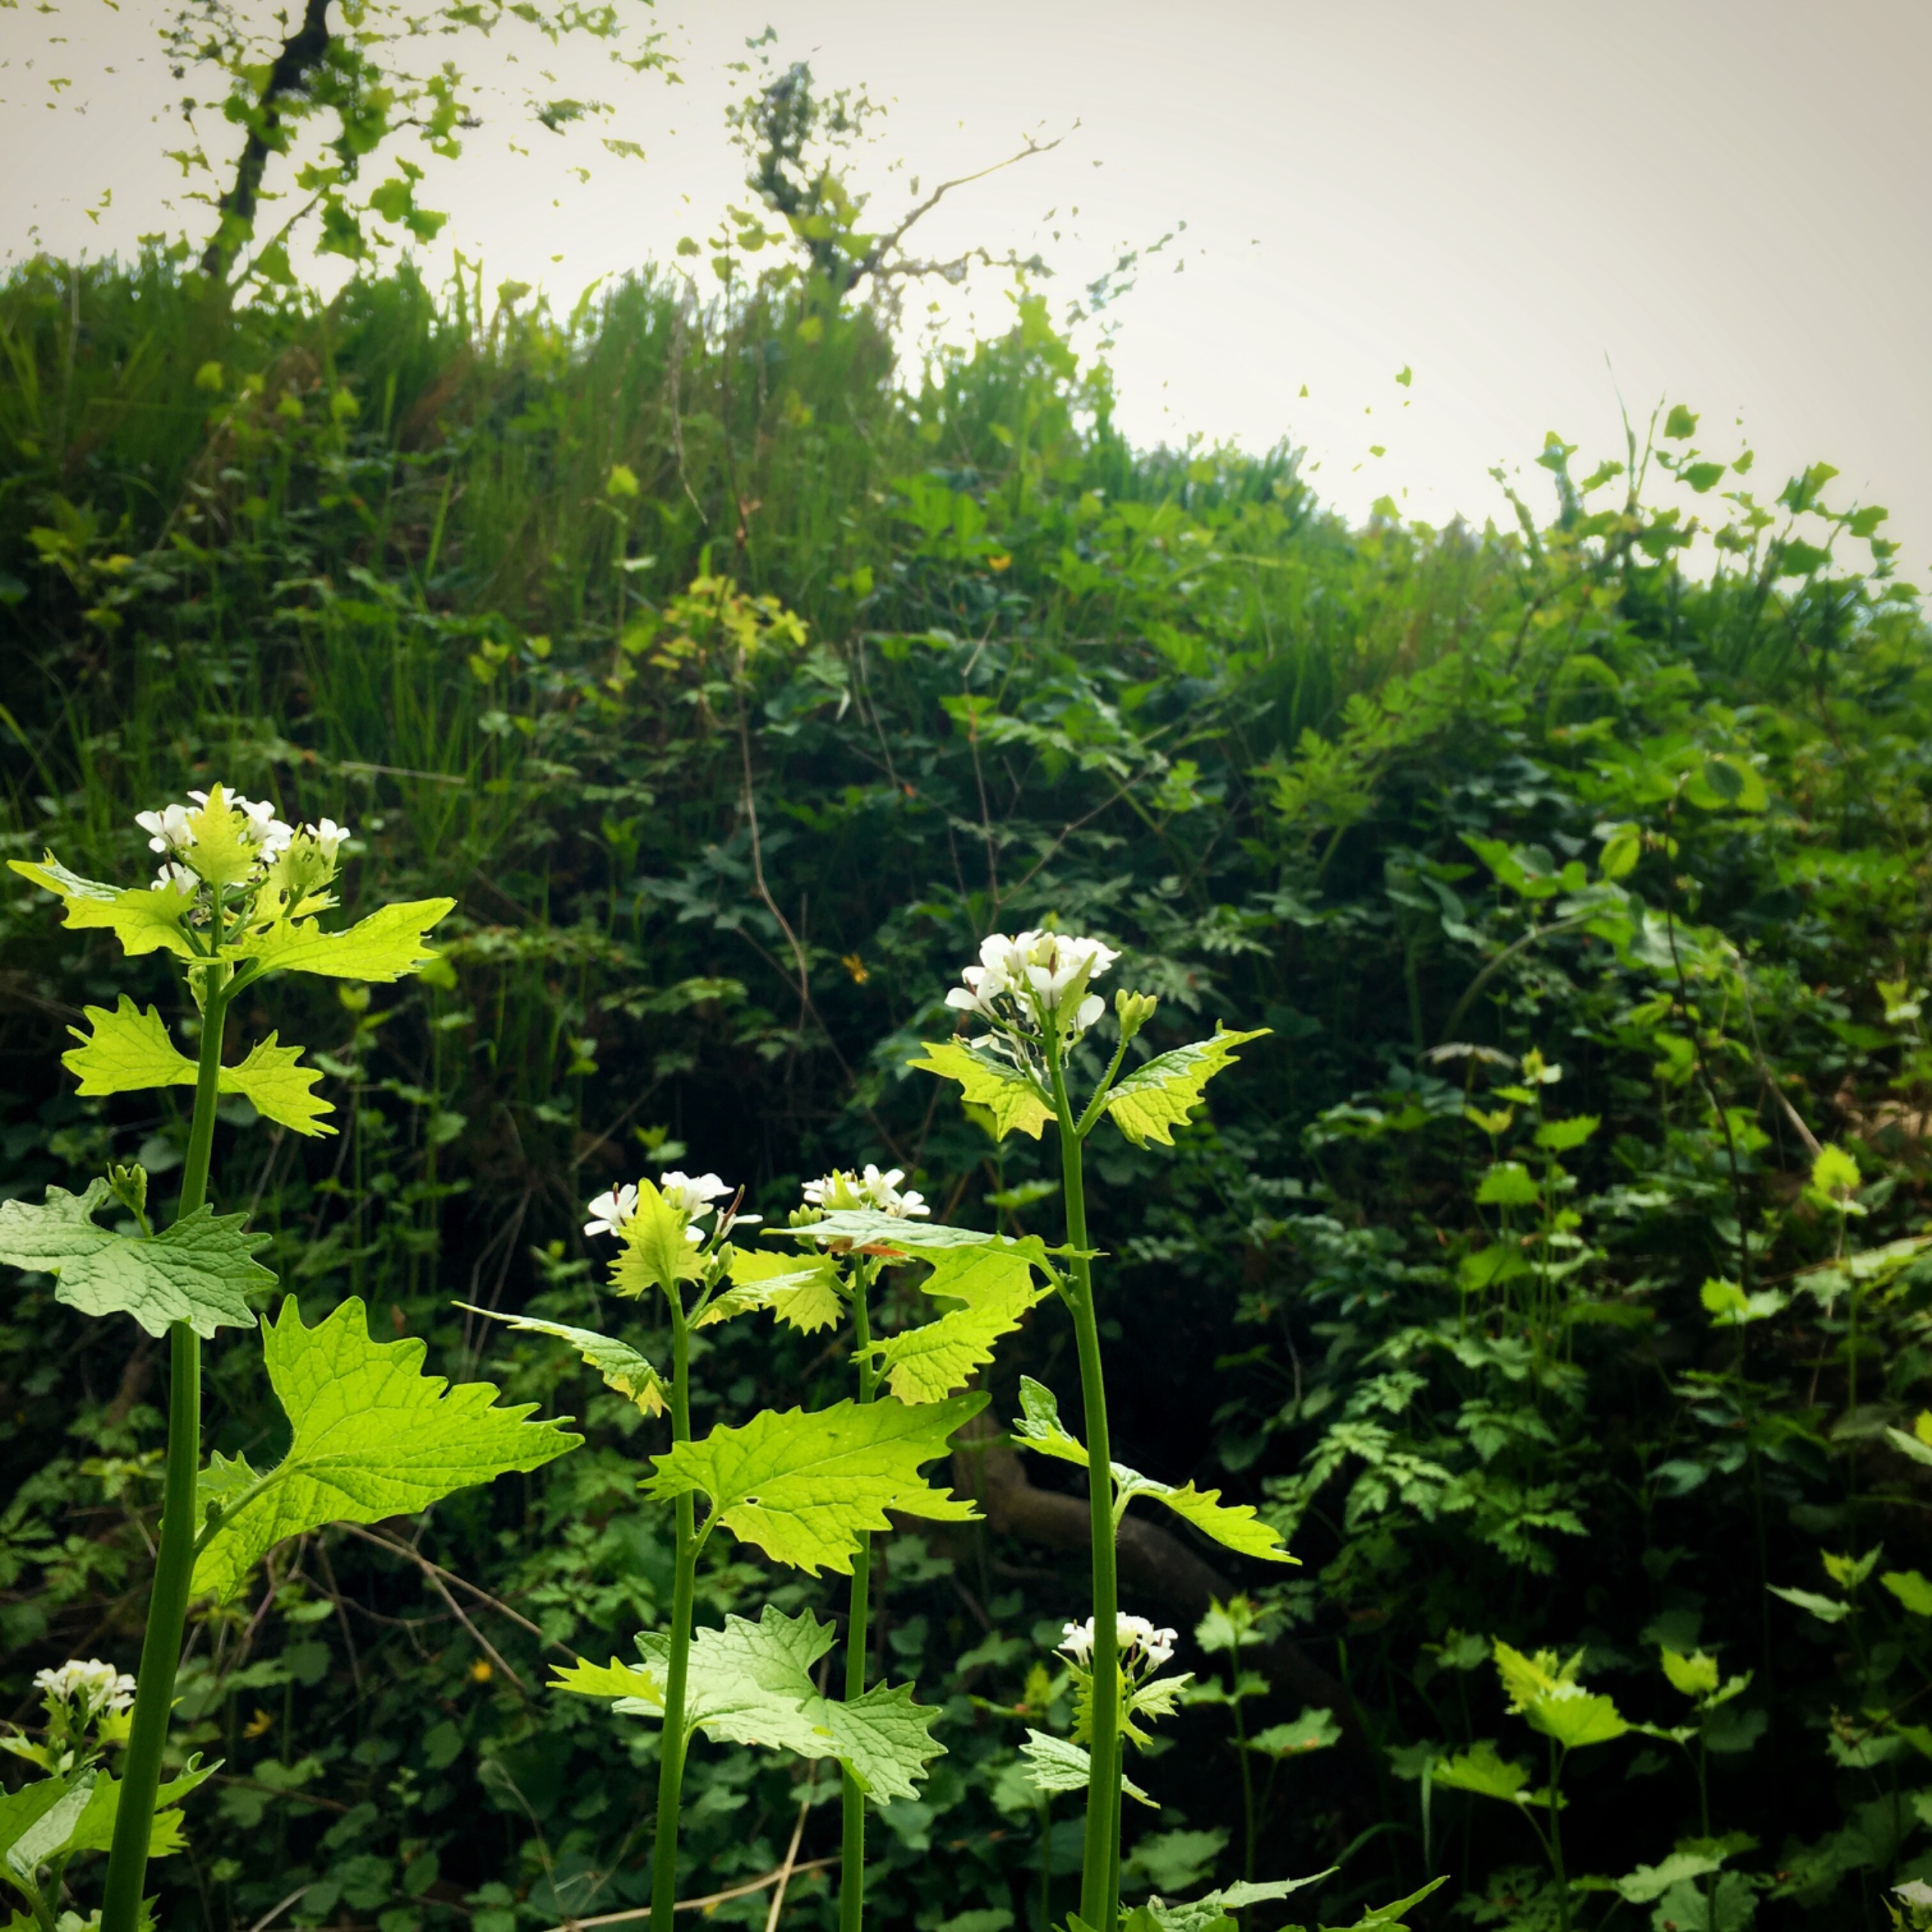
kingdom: Plantae
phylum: Tracheophyta
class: Magnoliopsida
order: Brassicales
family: Brassicaceae
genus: Alliaria
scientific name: Alliaria petiolata
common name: Løgkarse
